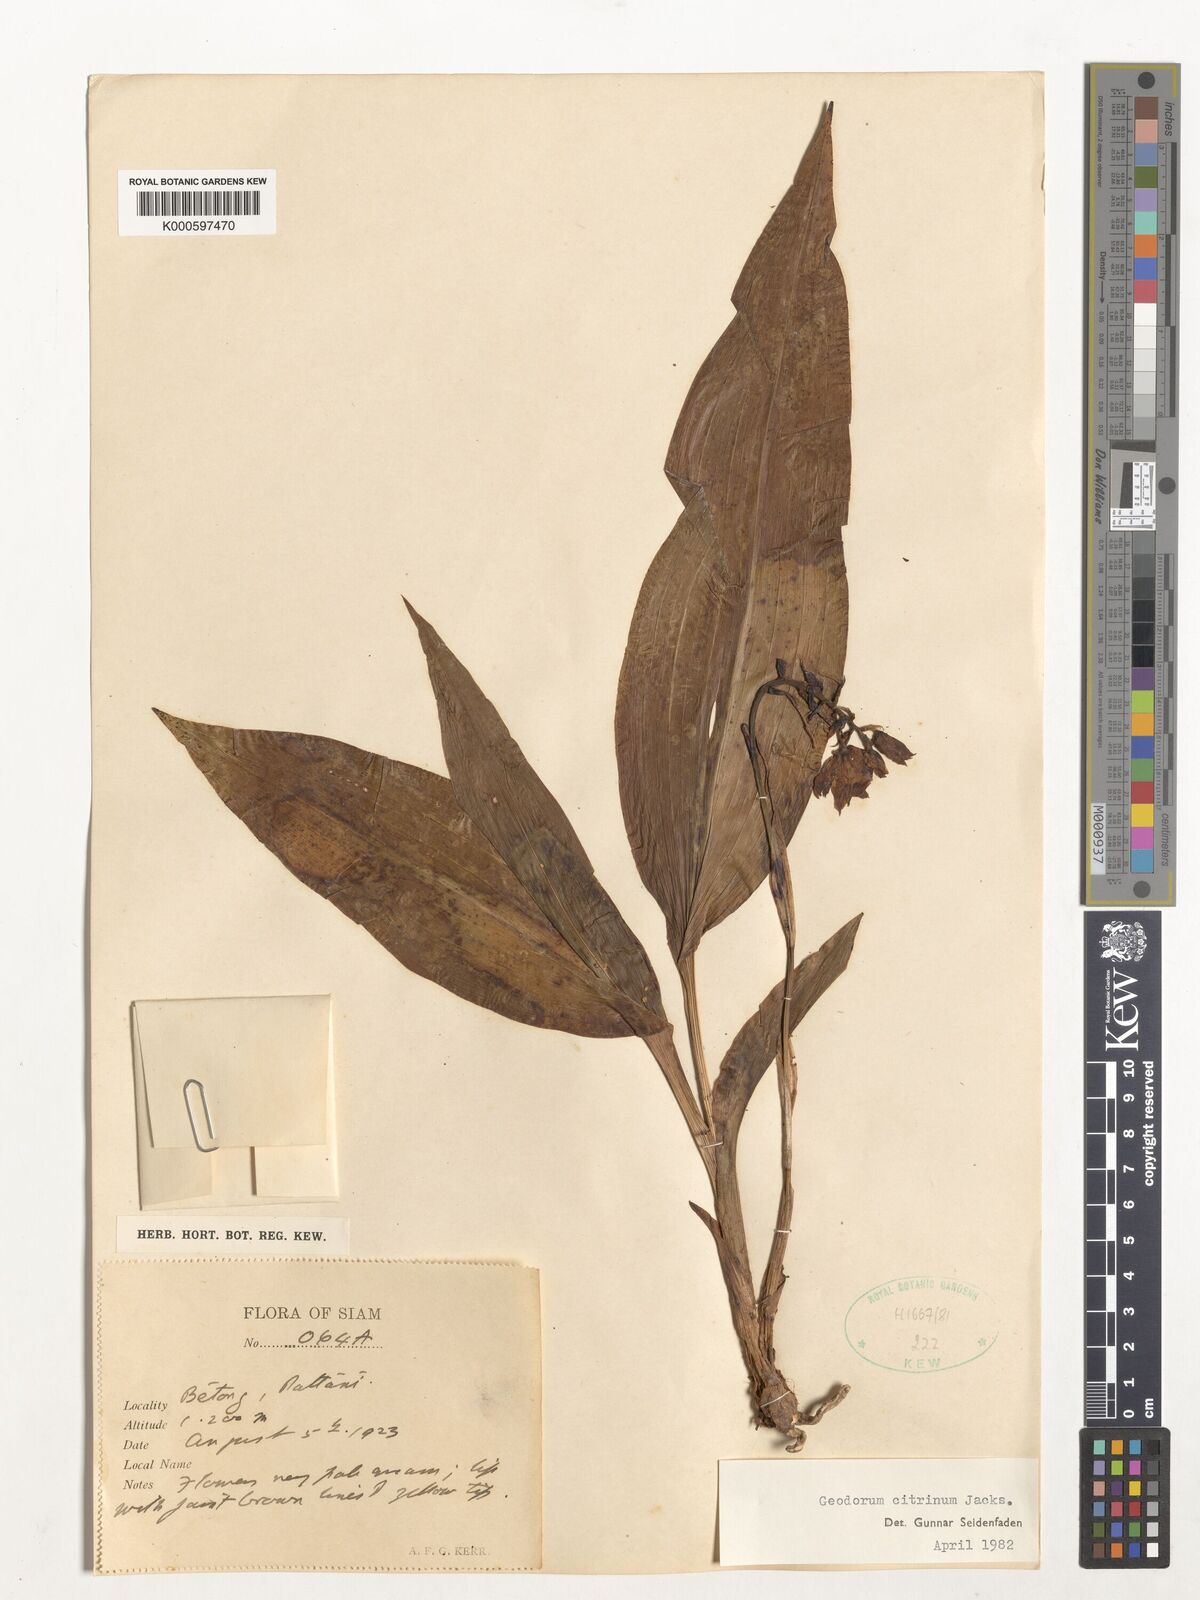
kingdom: Plantae
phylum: Tracheophyta
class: Liliopsida
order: Asparagales
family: Orchidaceae
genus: Geodorum
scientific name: Geodorum
